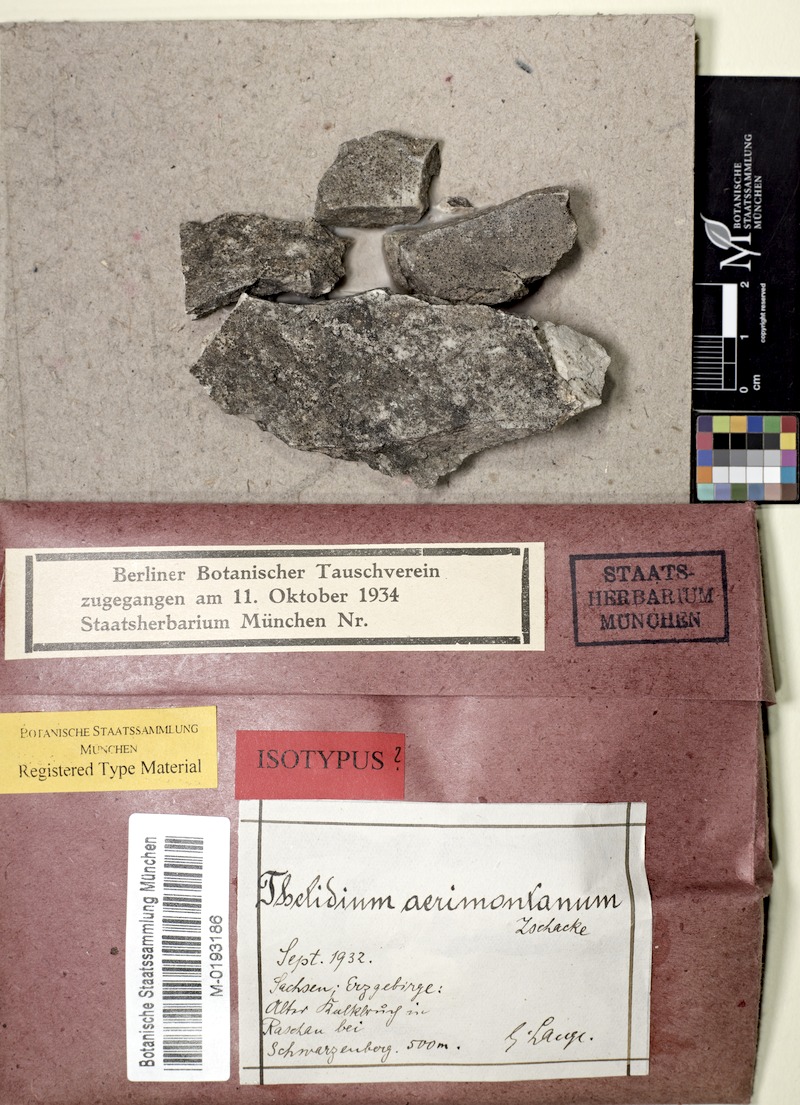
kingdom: Fungi
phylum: Ascomycota
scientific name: Ascomycota
